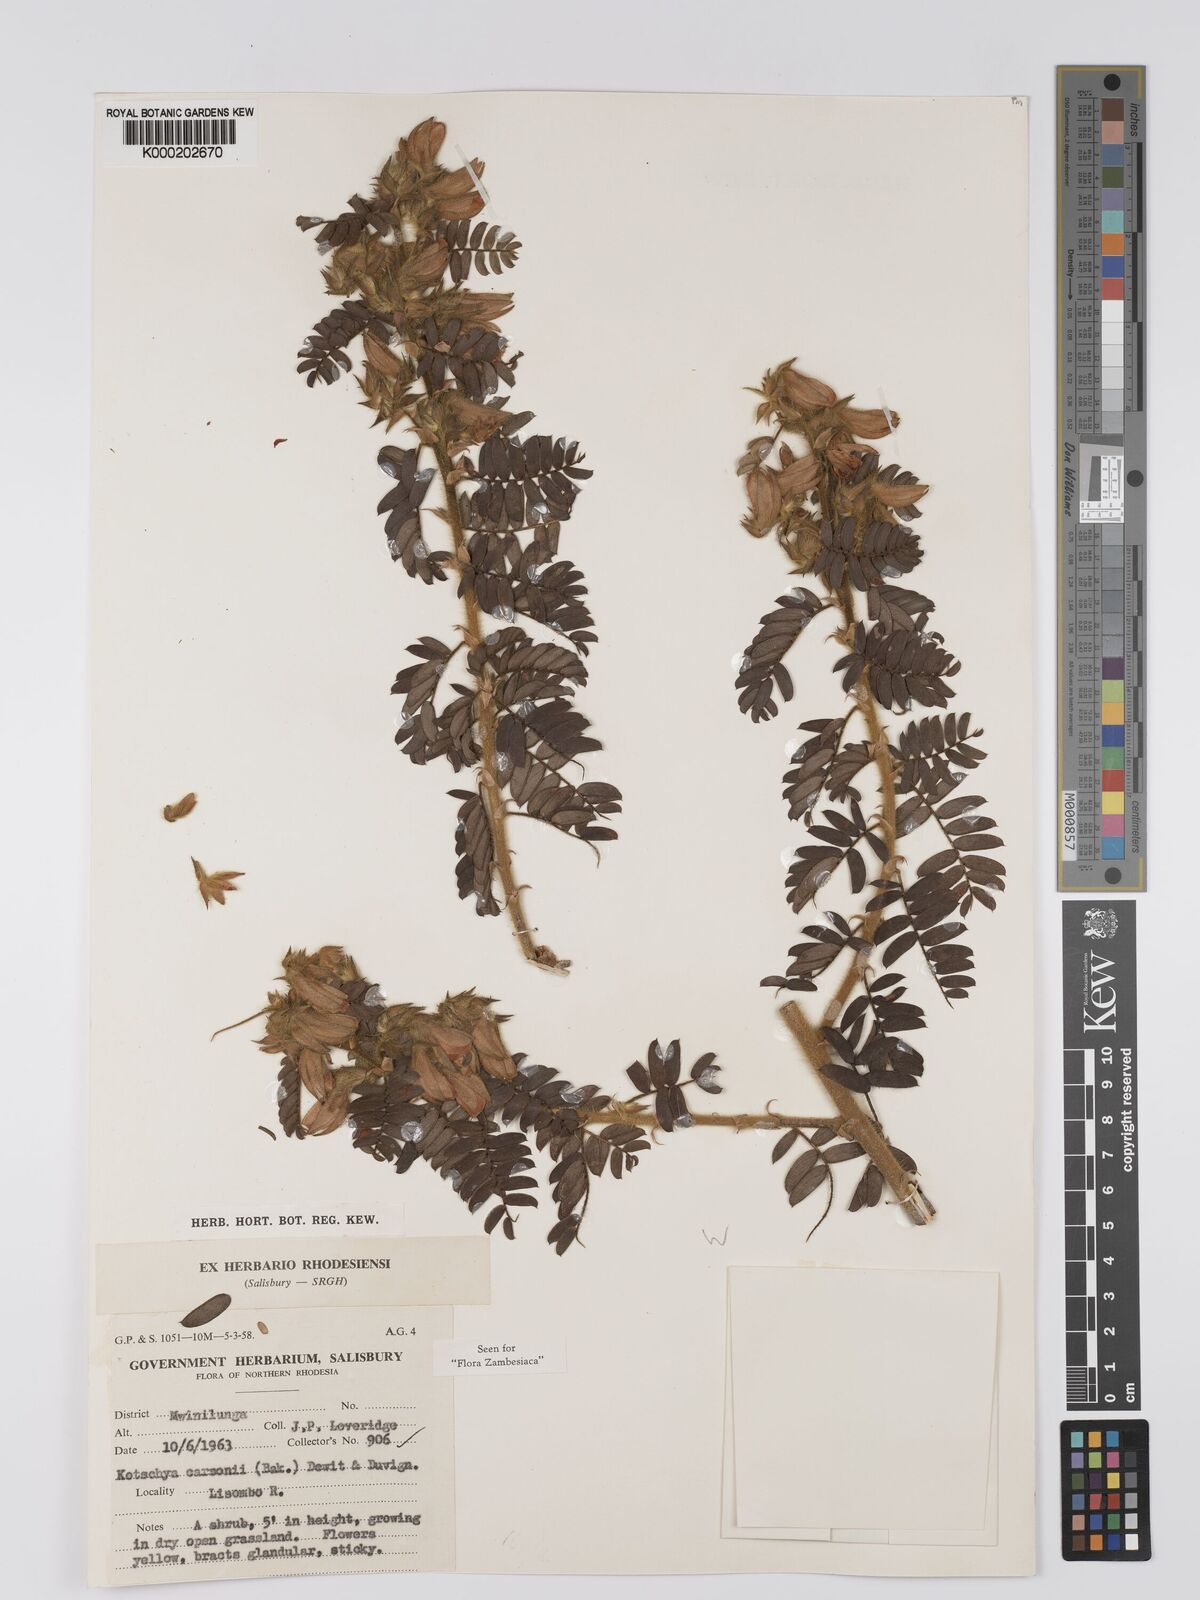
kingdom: Plantae
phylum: Tracheophyta
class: Magnoliopsida
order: Fabales
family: Fabaceae
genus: Kotschya
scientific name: Kotschya carsonii
